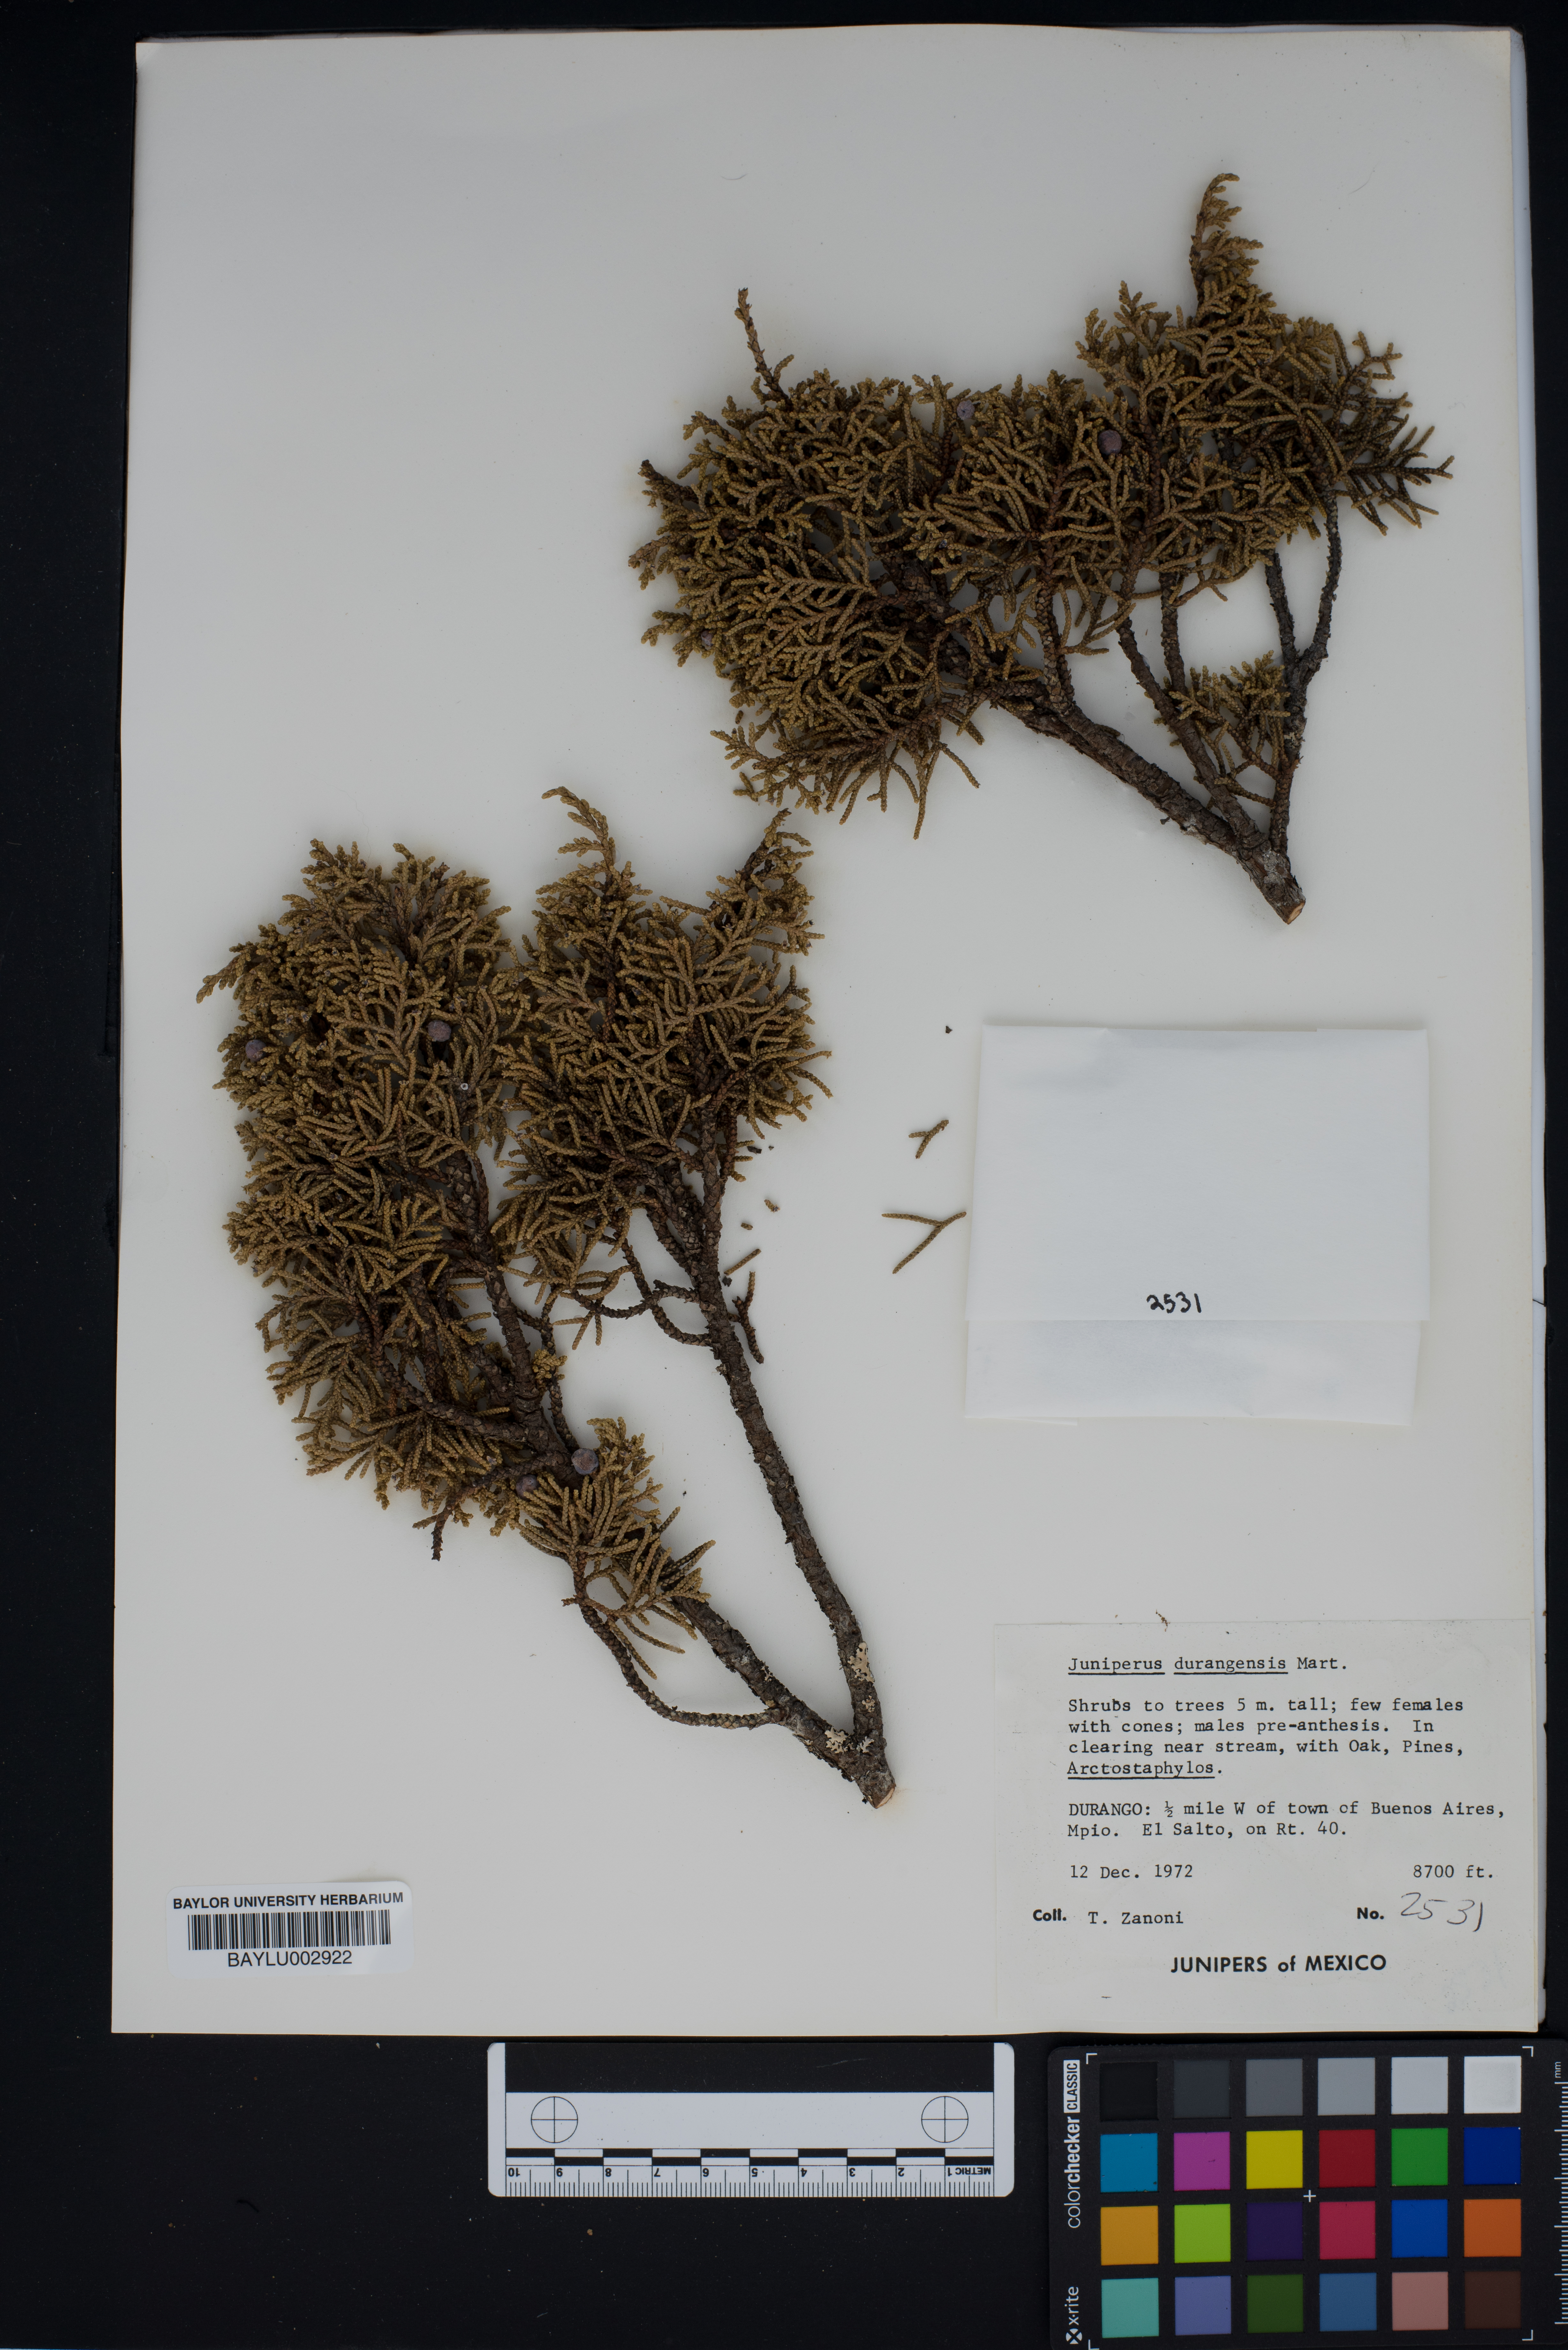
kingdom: Plantae
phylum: Tracheophyta
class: Pinopsida
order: Pinales
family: Cupressaceae
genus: Juniperus
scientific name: Juniperus durangensis
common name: Durango juniper
